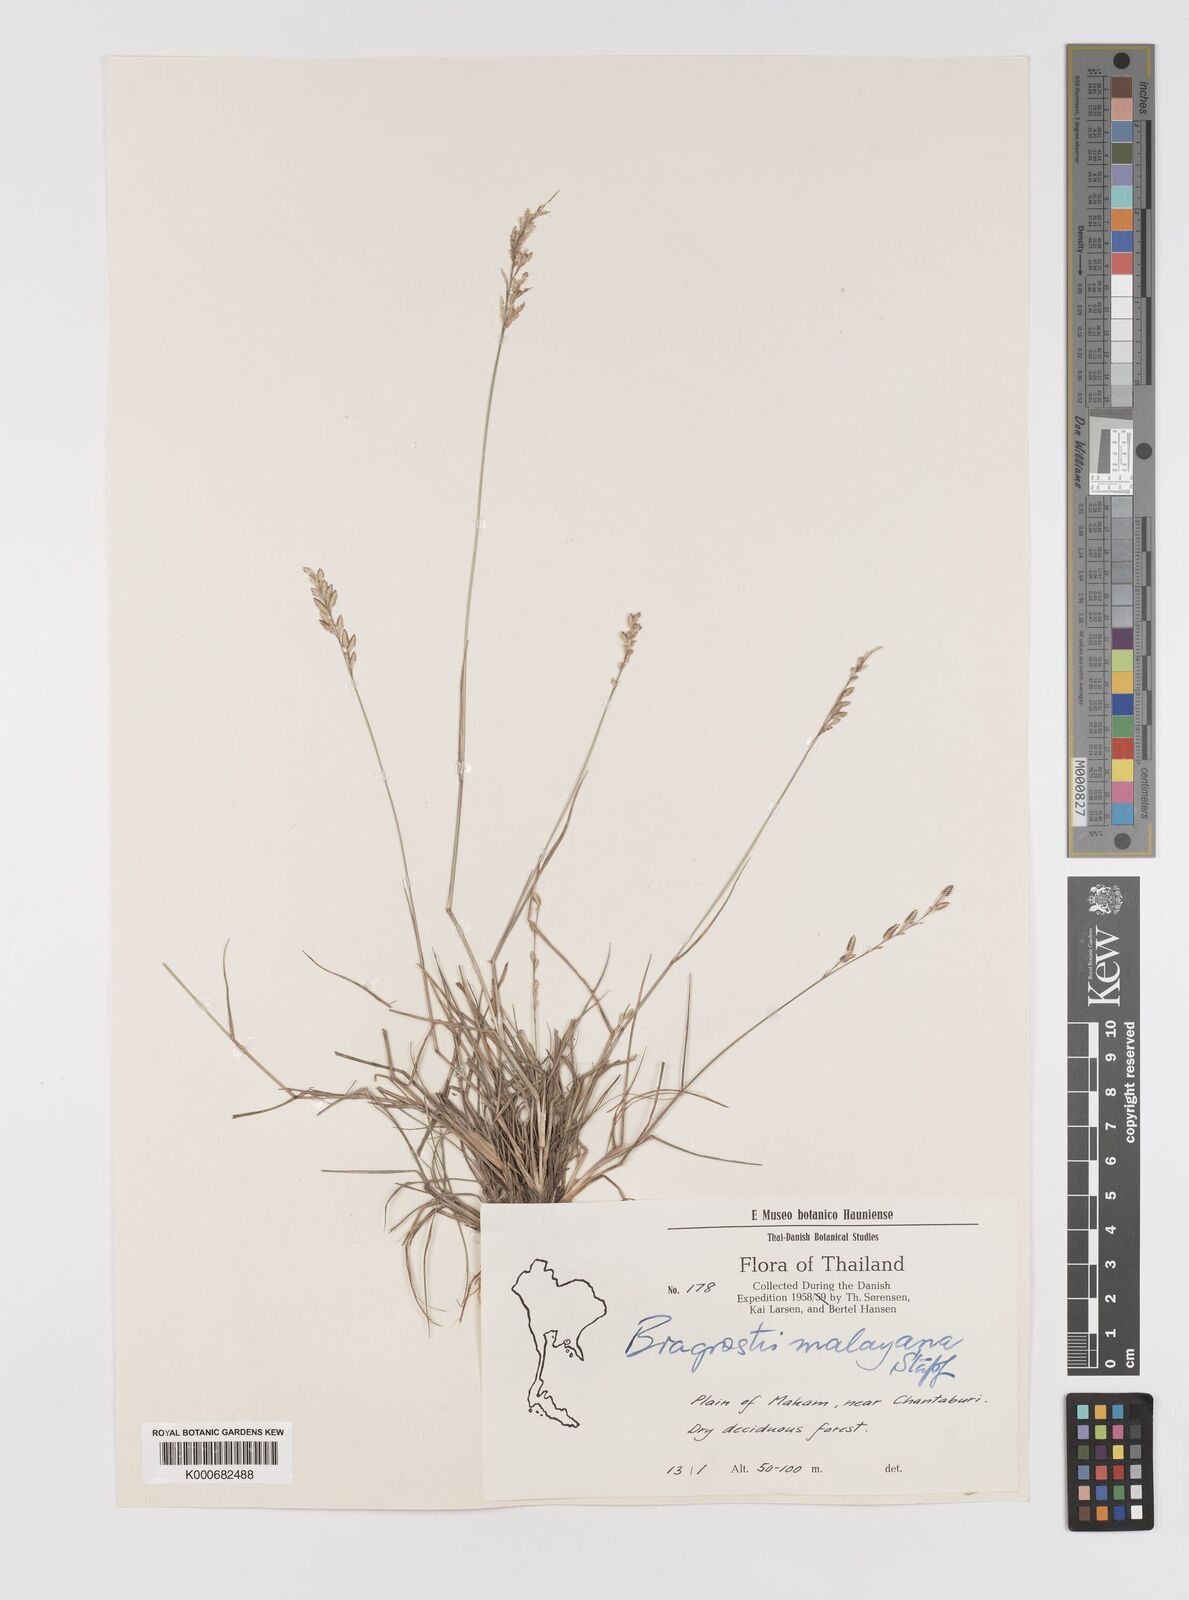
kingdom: Plantae
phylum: Tracheophyta
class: Liliopsida
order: Poales
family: Poaceae
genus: Eragrostis
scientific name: Eragrostis montana
